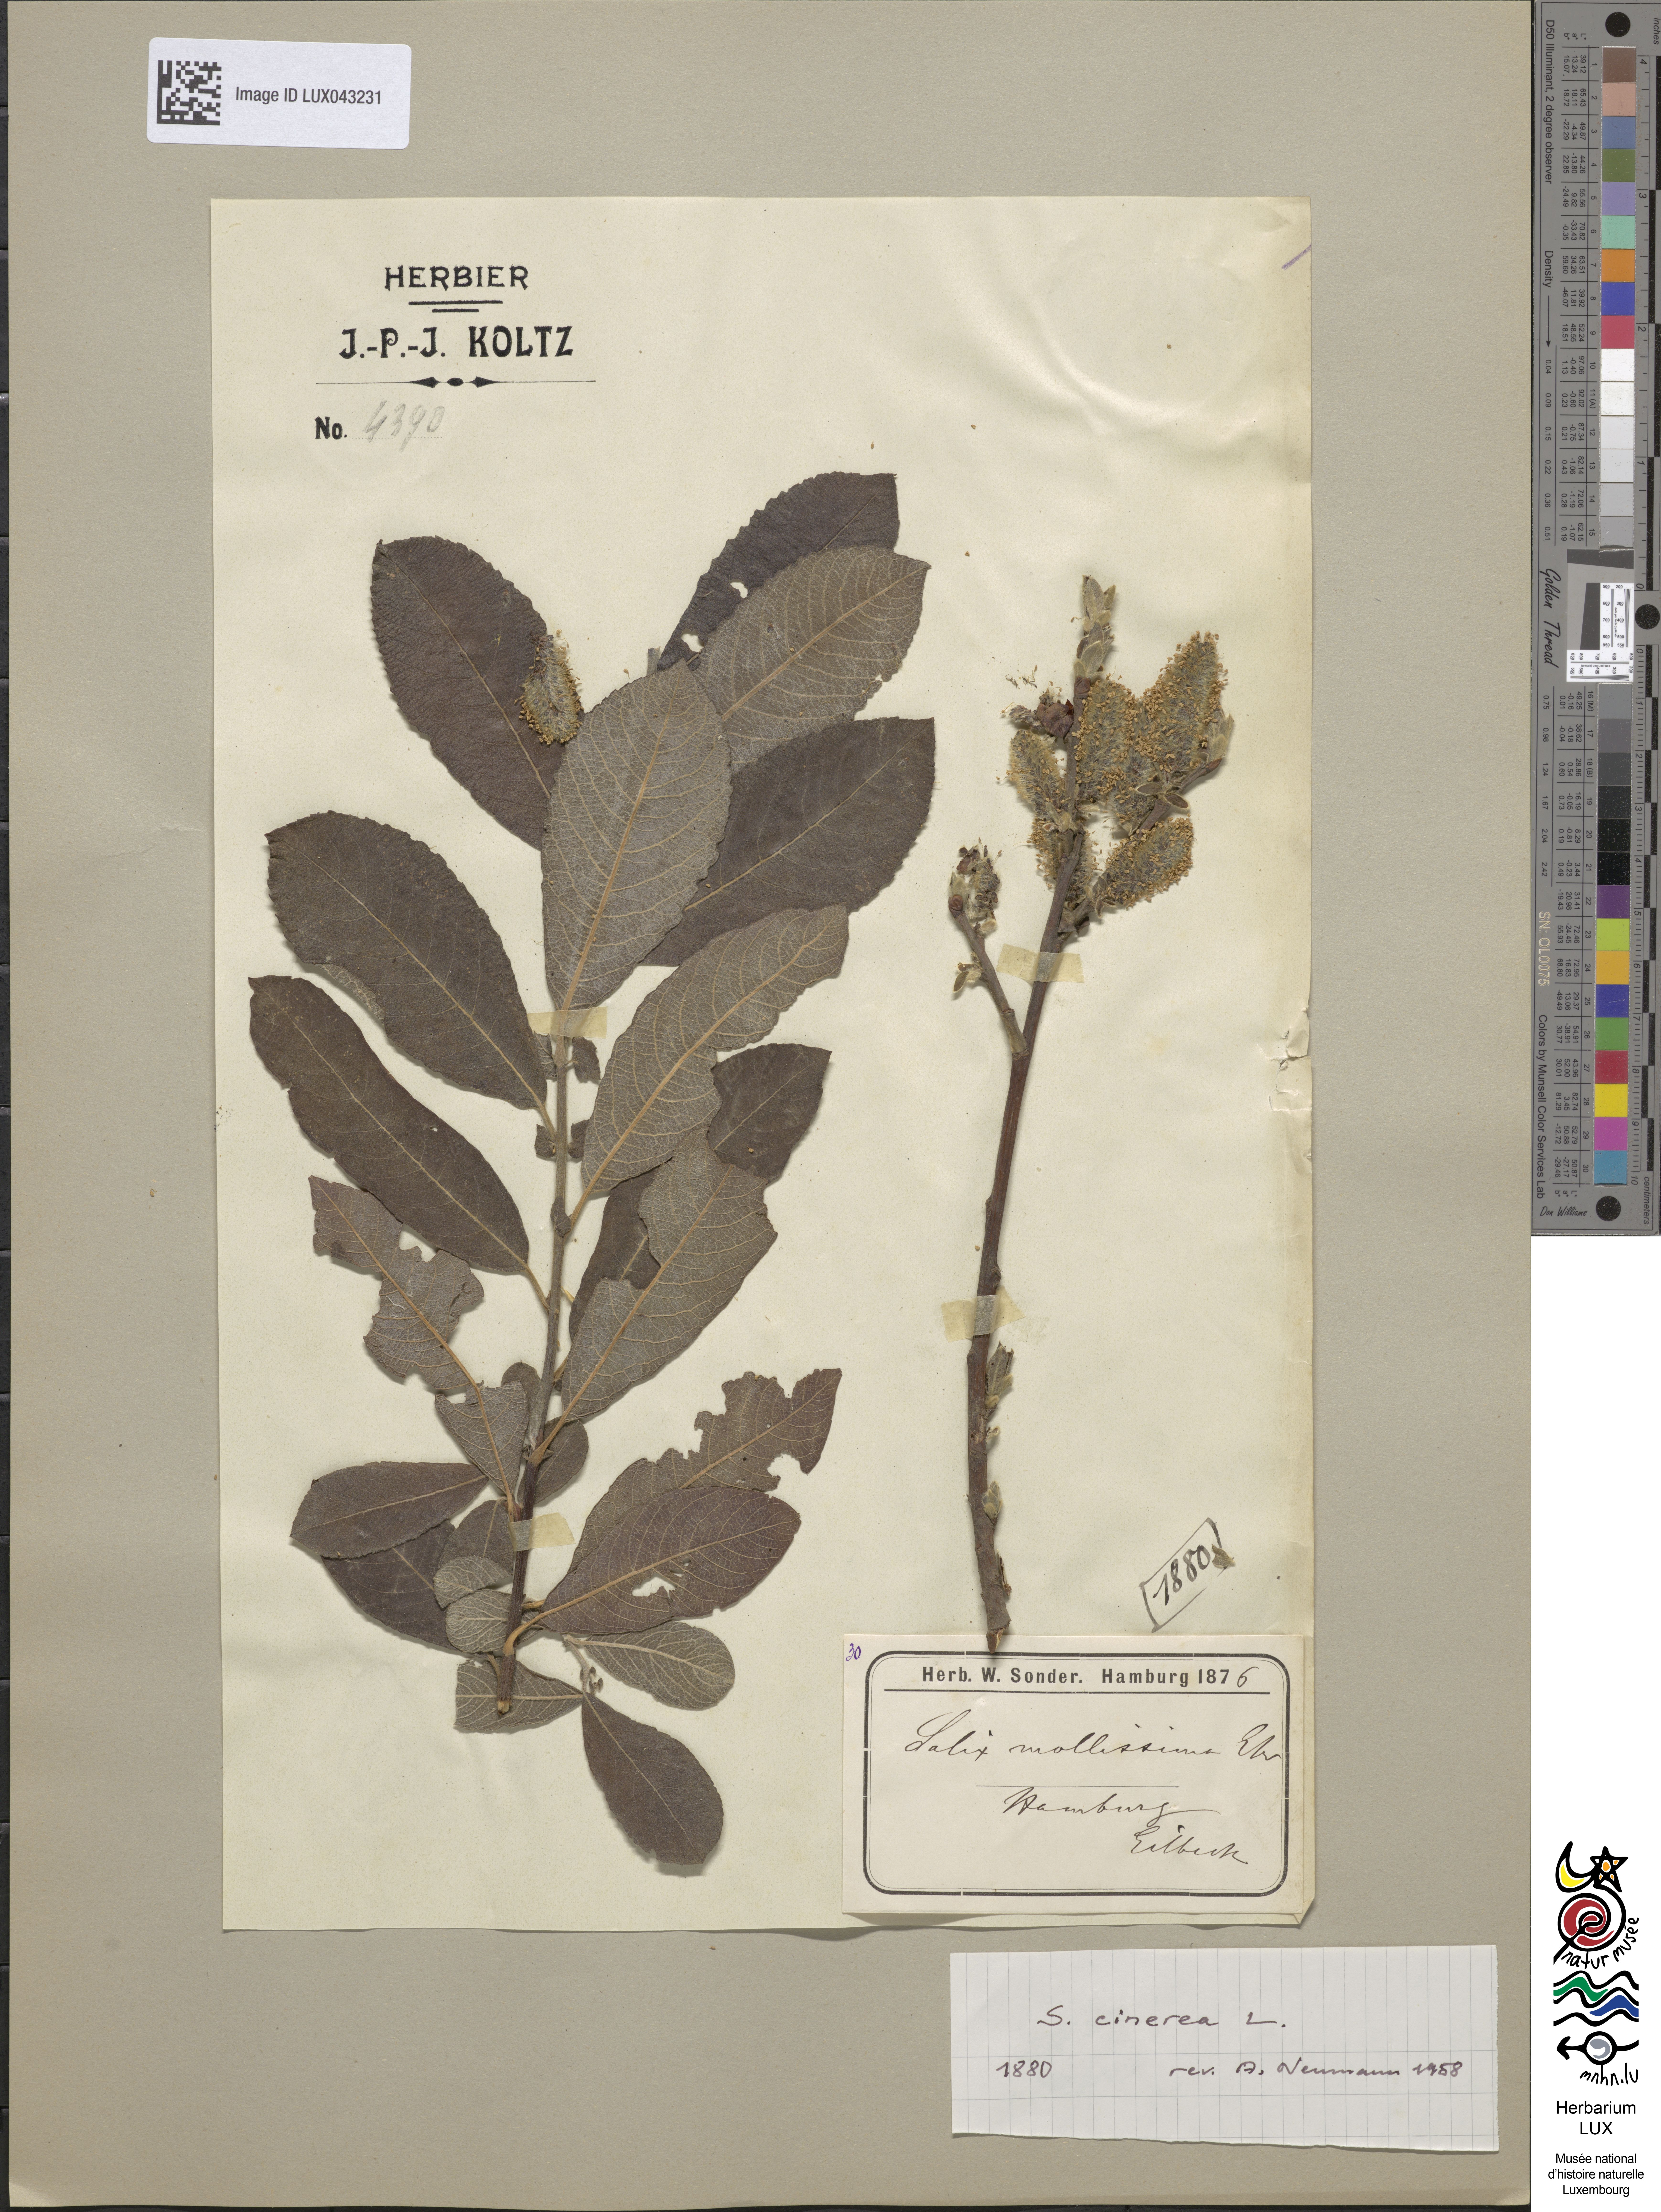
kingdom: Plantae
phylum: Tracheophyta
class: Magnoliopsida
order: Malpighiales
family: Salicaceae
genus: Salix
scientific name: Salix cinerea
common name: Common sallow
